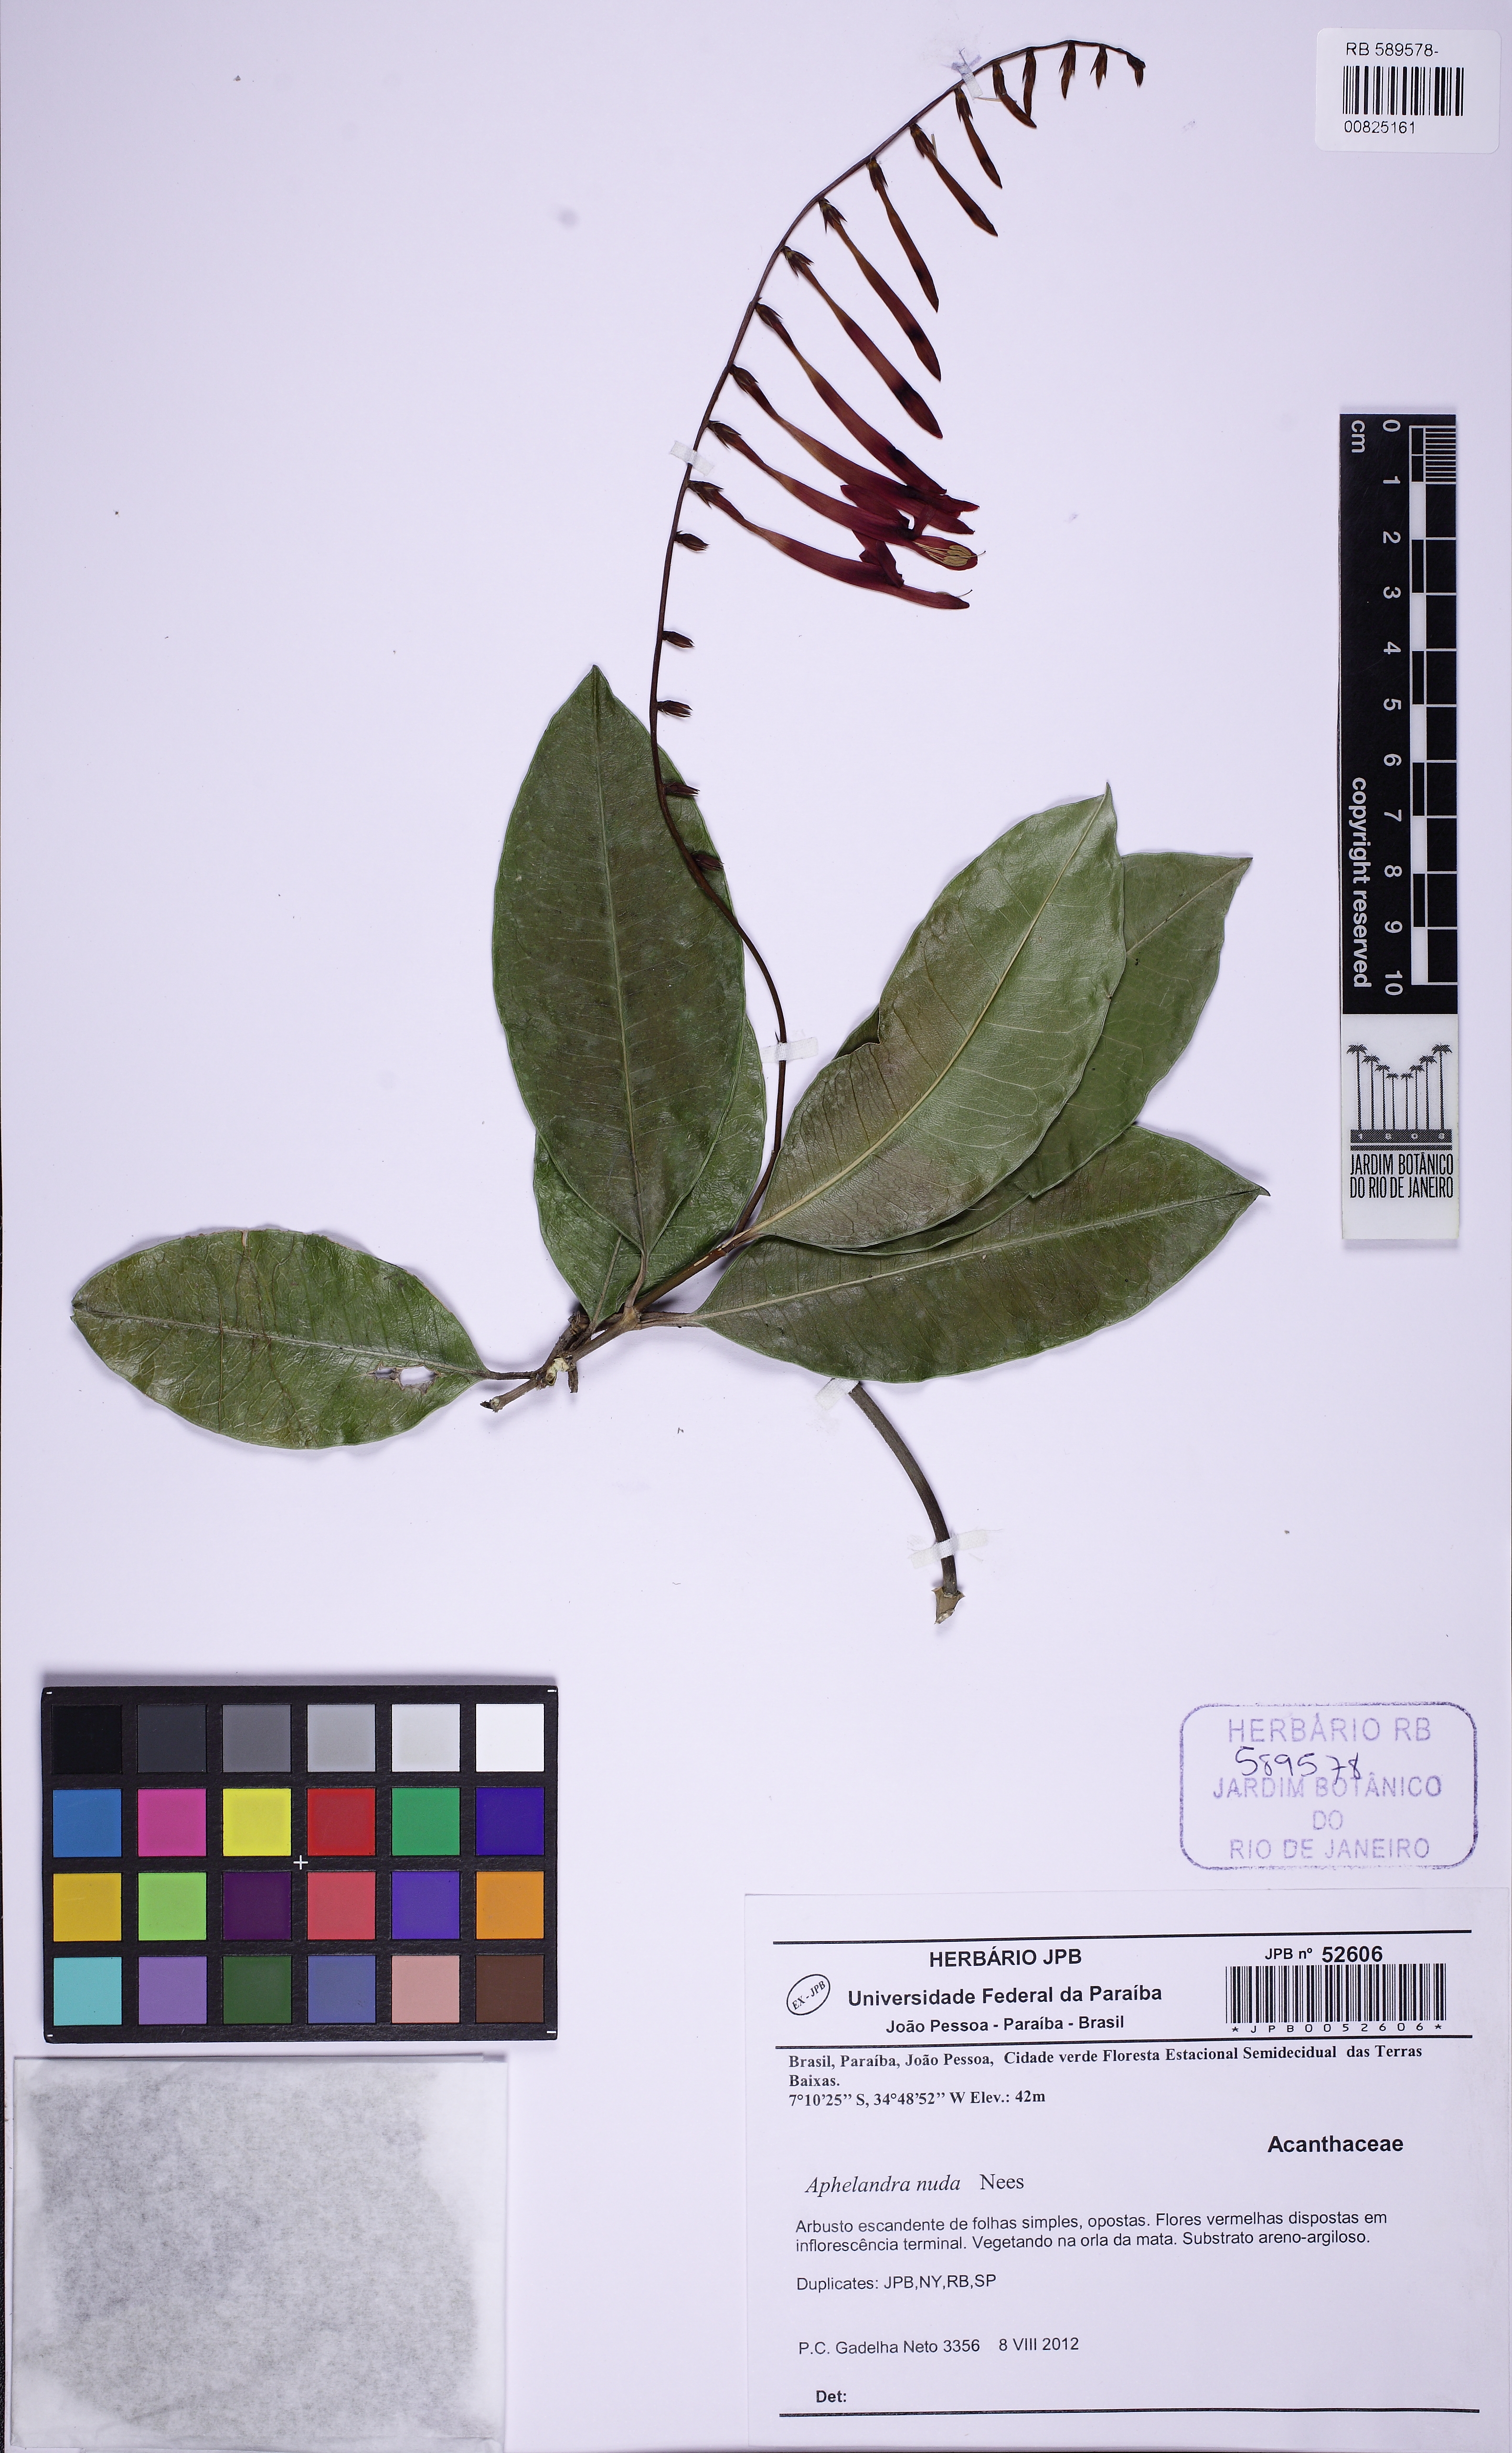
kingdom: Plantae
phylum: Tracheophyta
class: Magnoliopsida
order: Lamiales
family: Acanthaceae
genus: Aphelandra
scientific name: Aphelandra nuda
